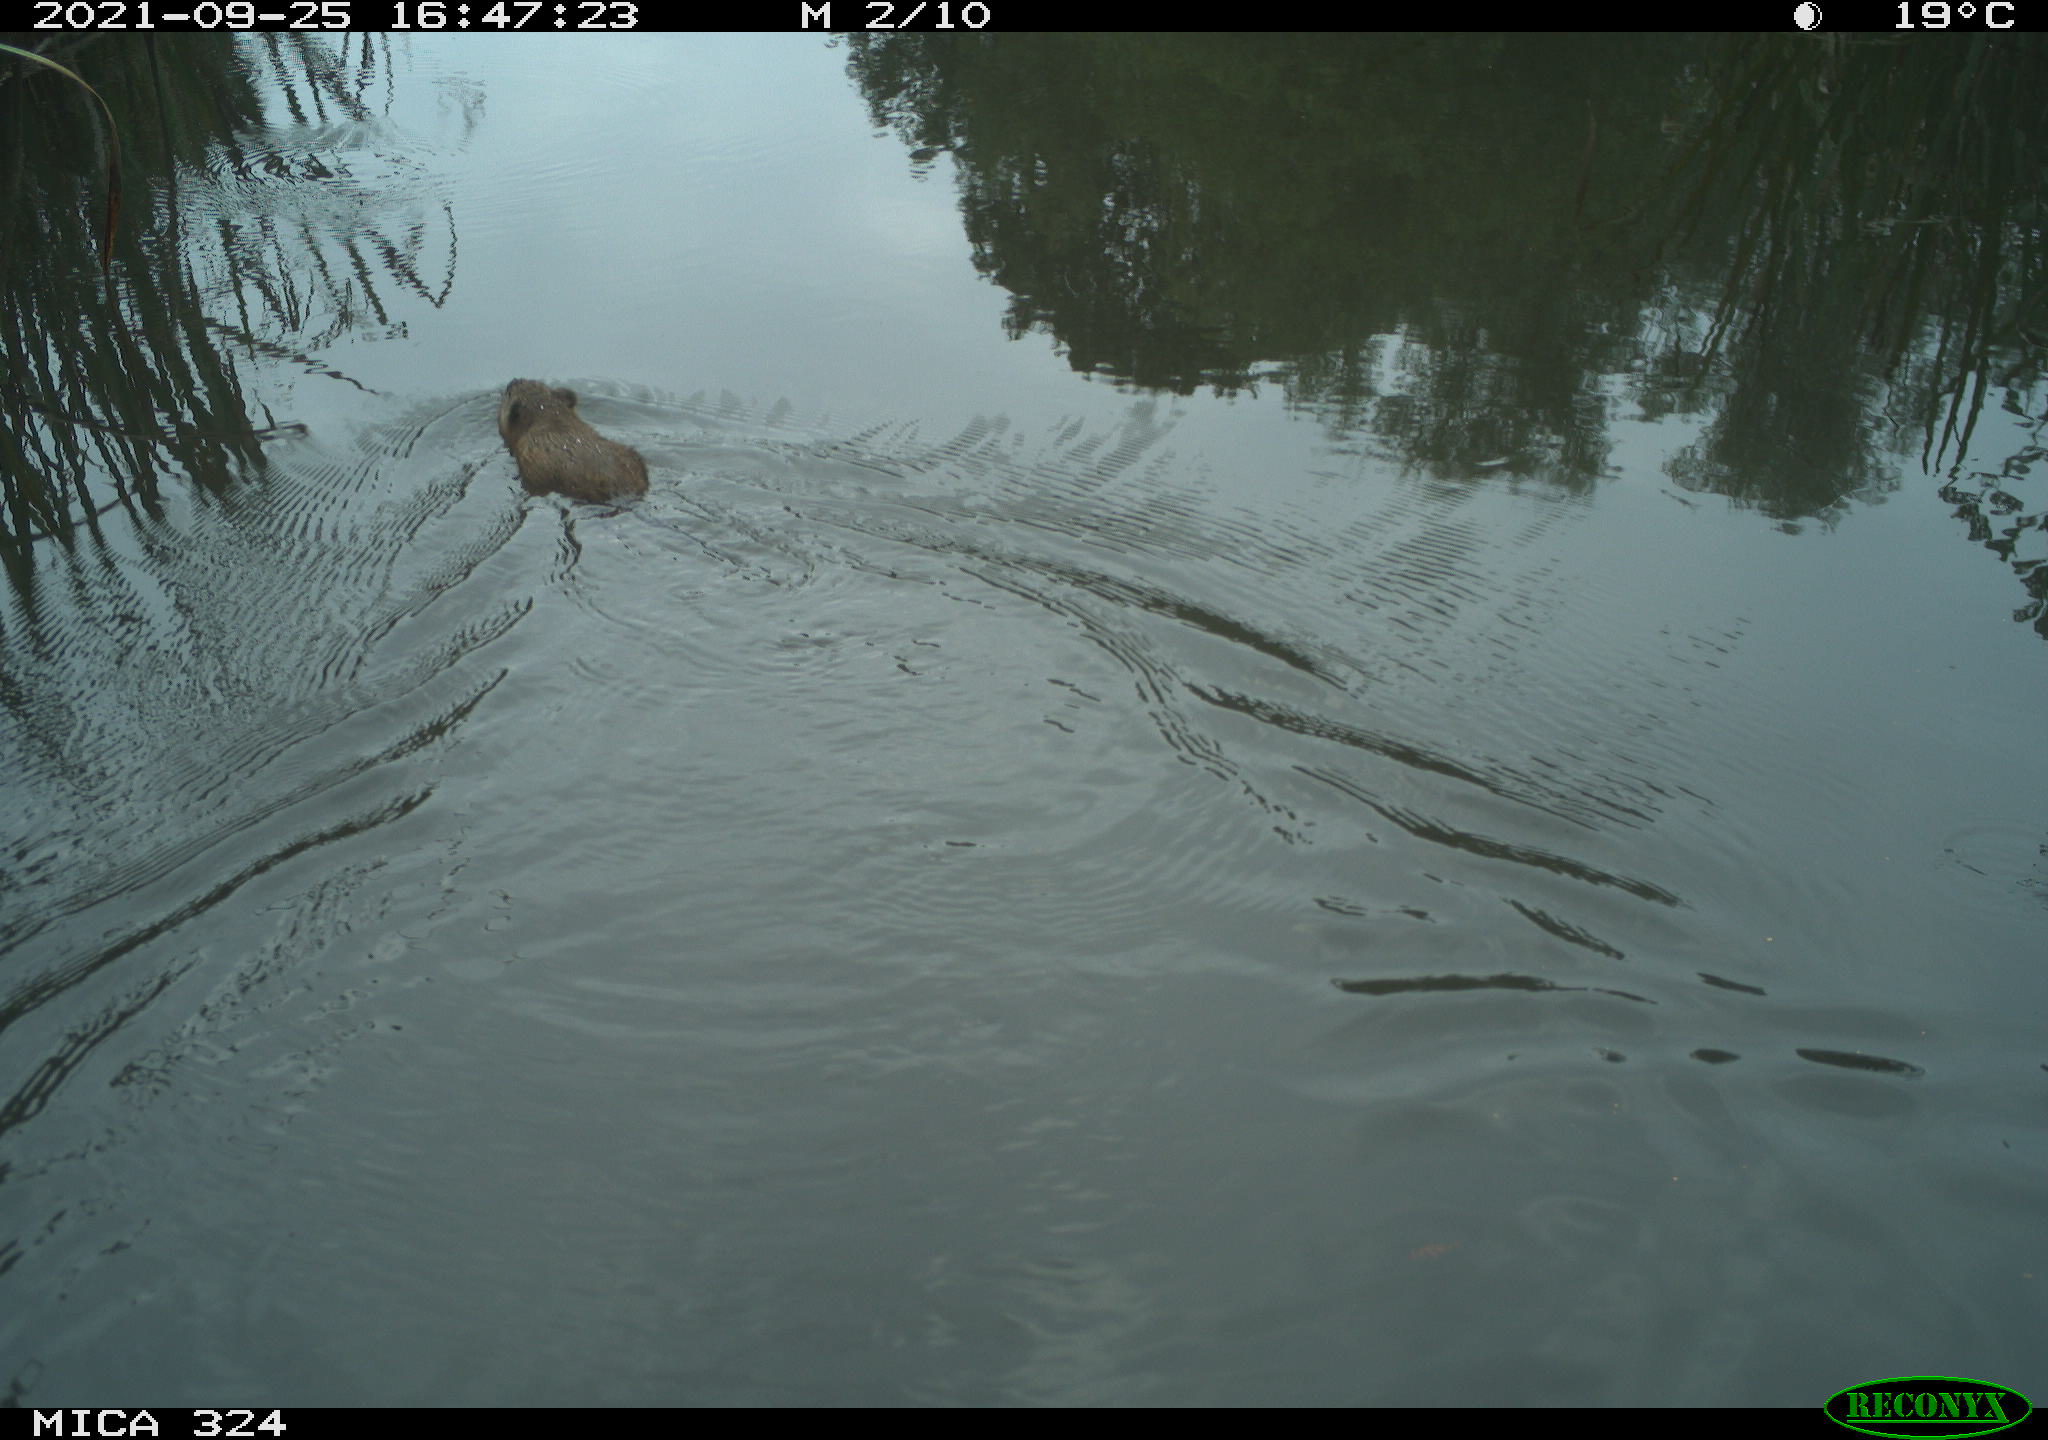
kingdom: Animalia
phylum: Chordata
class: Mammalia
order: Rodentia
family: Cricetidae
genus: Ondatra
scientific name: Ondatra zibethicus
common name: Muskrat
